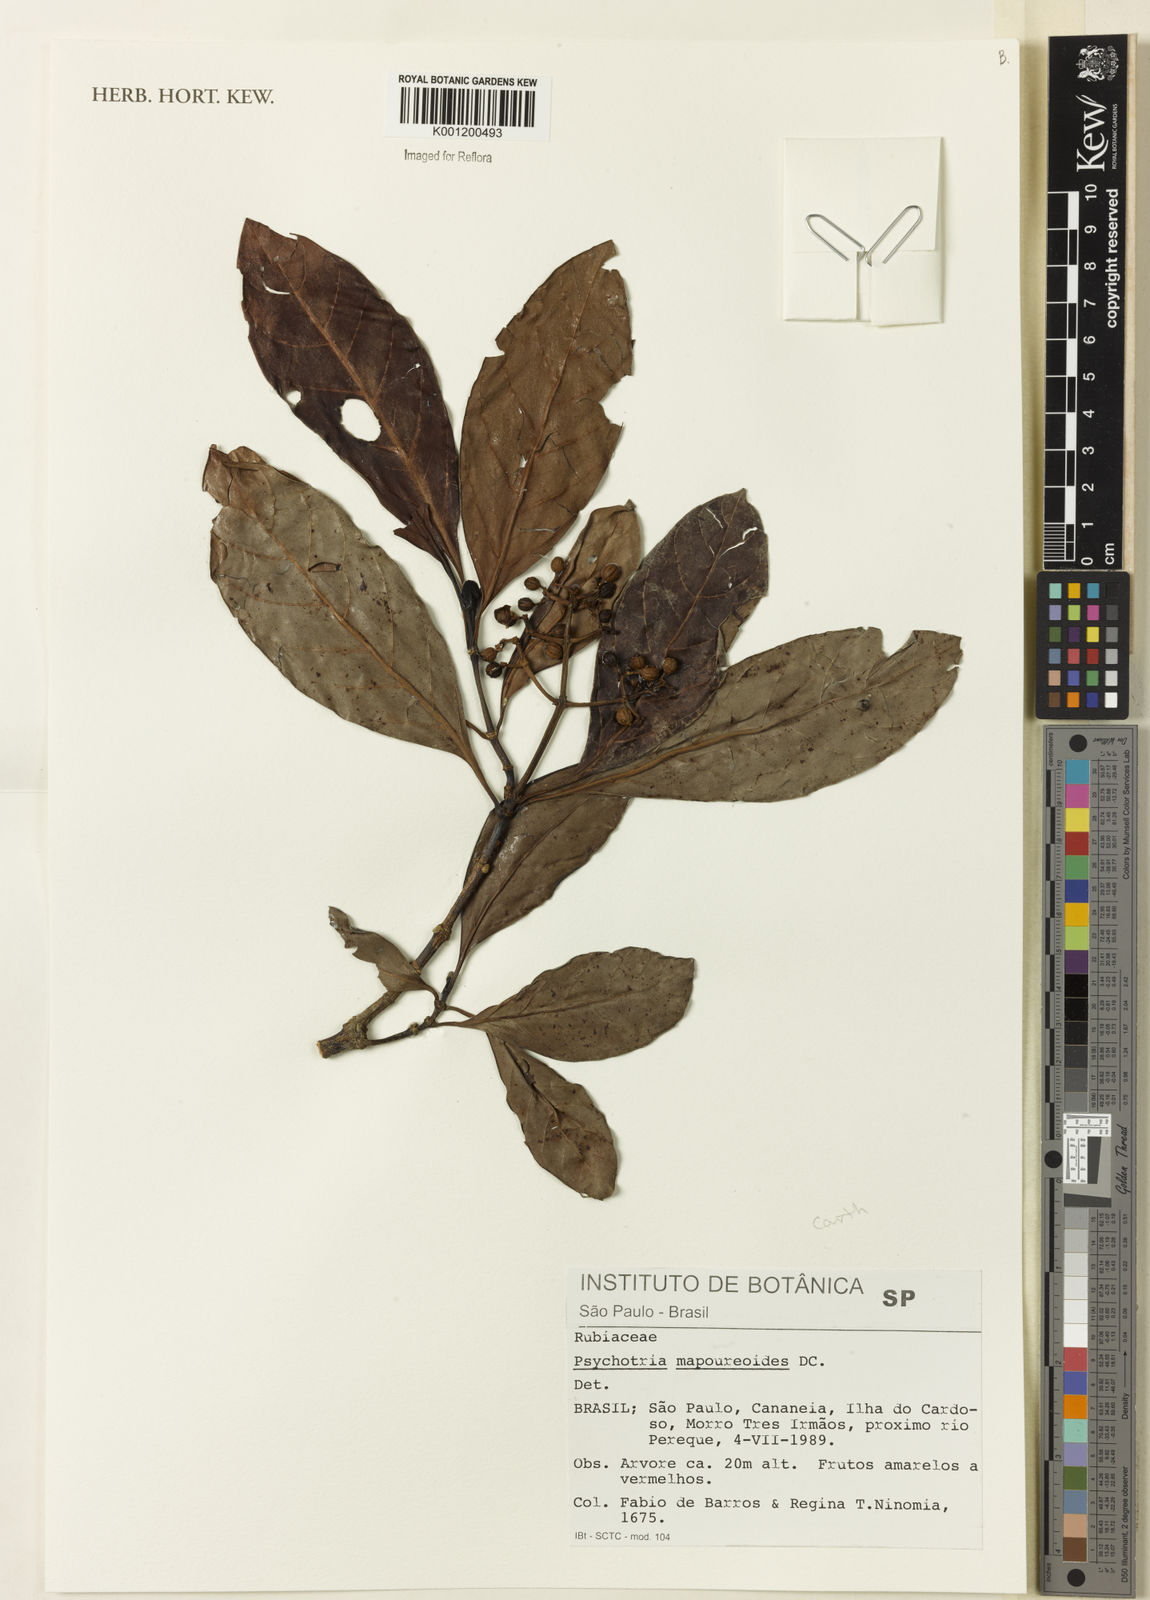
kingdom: Plantae
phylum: Tracheophyta
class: Magnoliopsida
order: Gentianales
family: Rubiaceae
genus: Psychotria
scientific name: Psychotria carthagenensis
